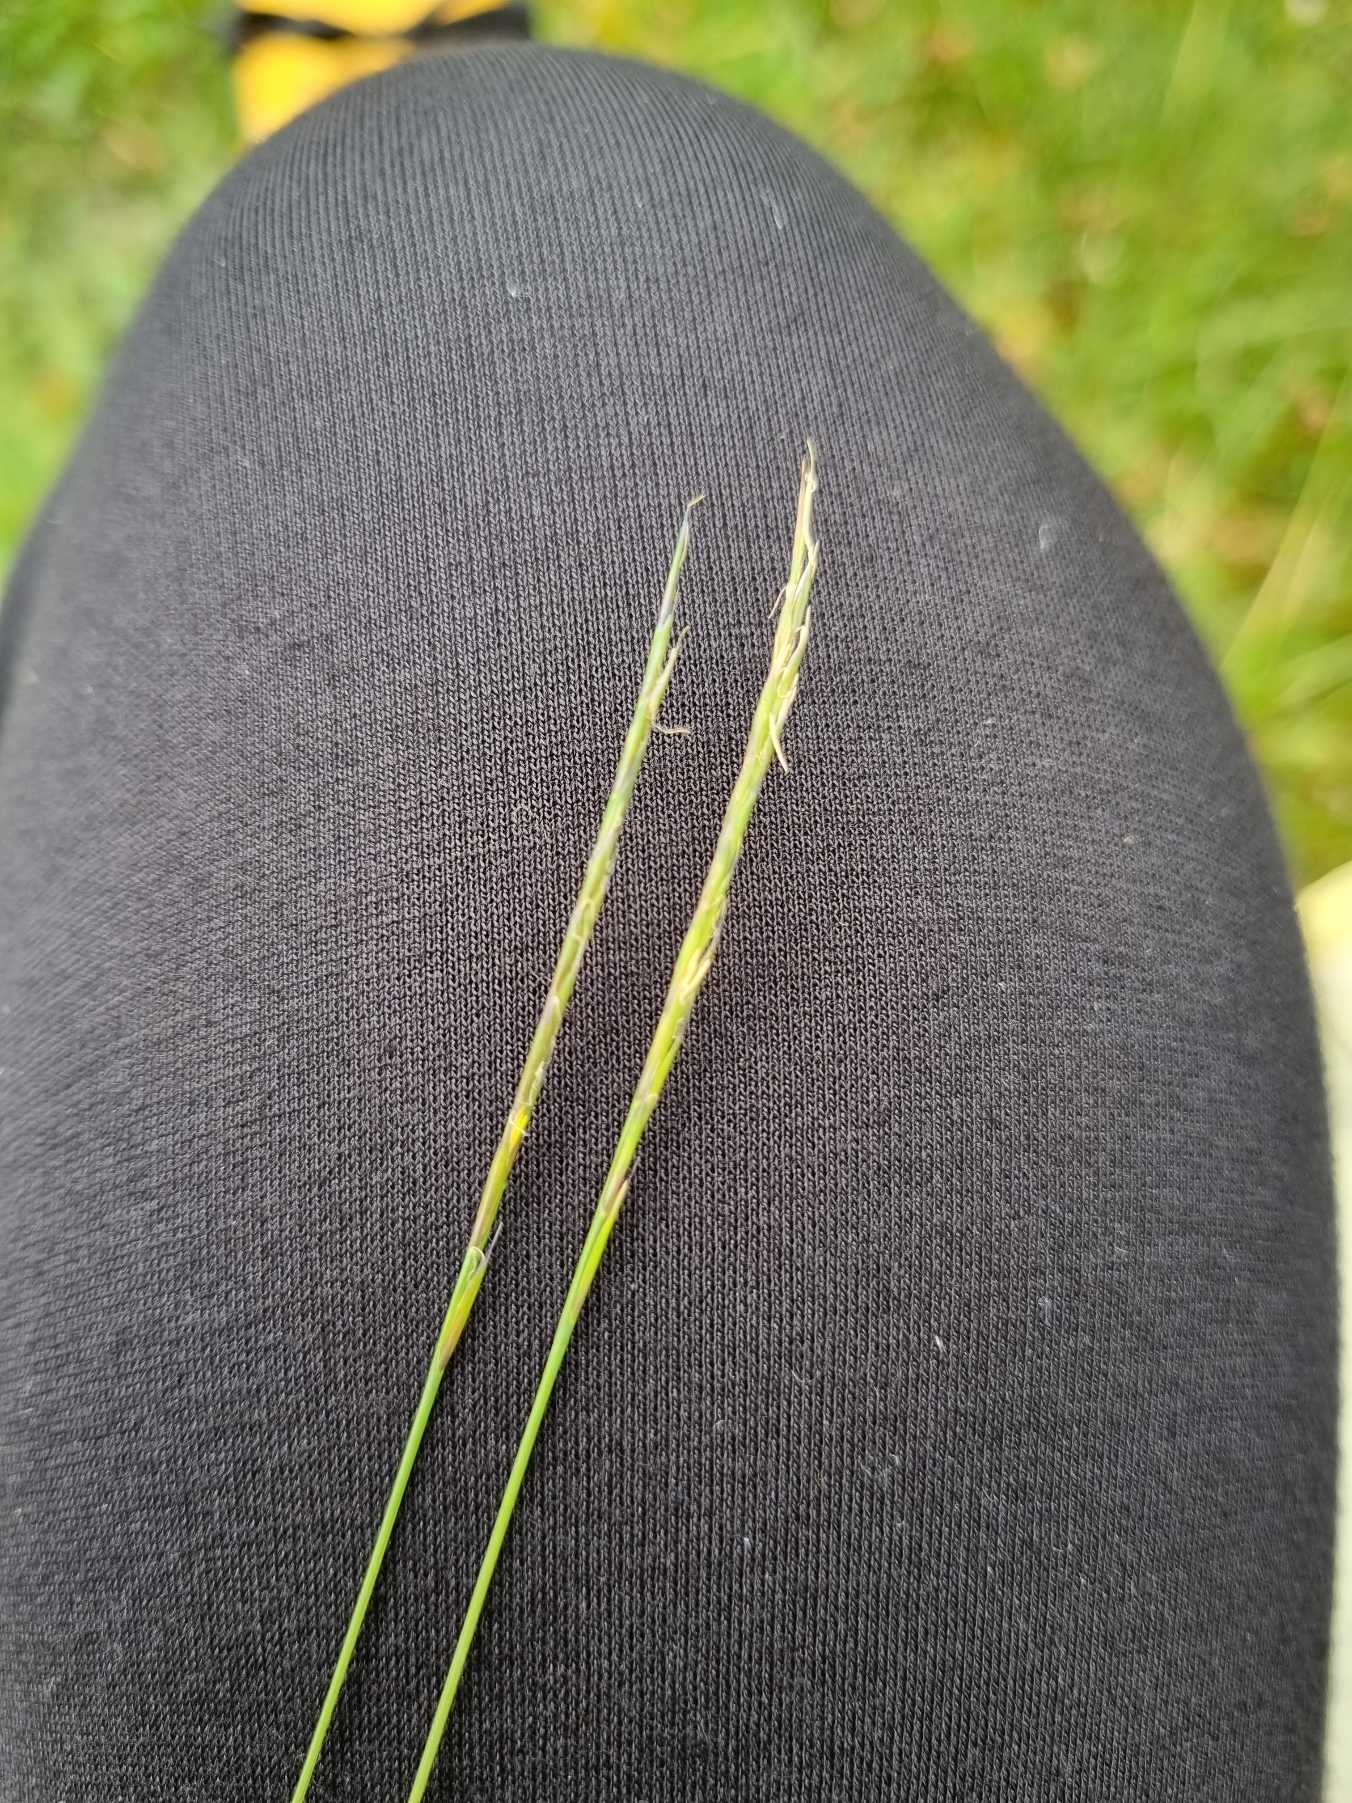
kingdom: Plantae
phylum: Tracheophyta
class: Liliopsida
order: Poales
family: Poaceae
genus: Nardus
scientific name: Nardus stricta
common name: Katteskæg
